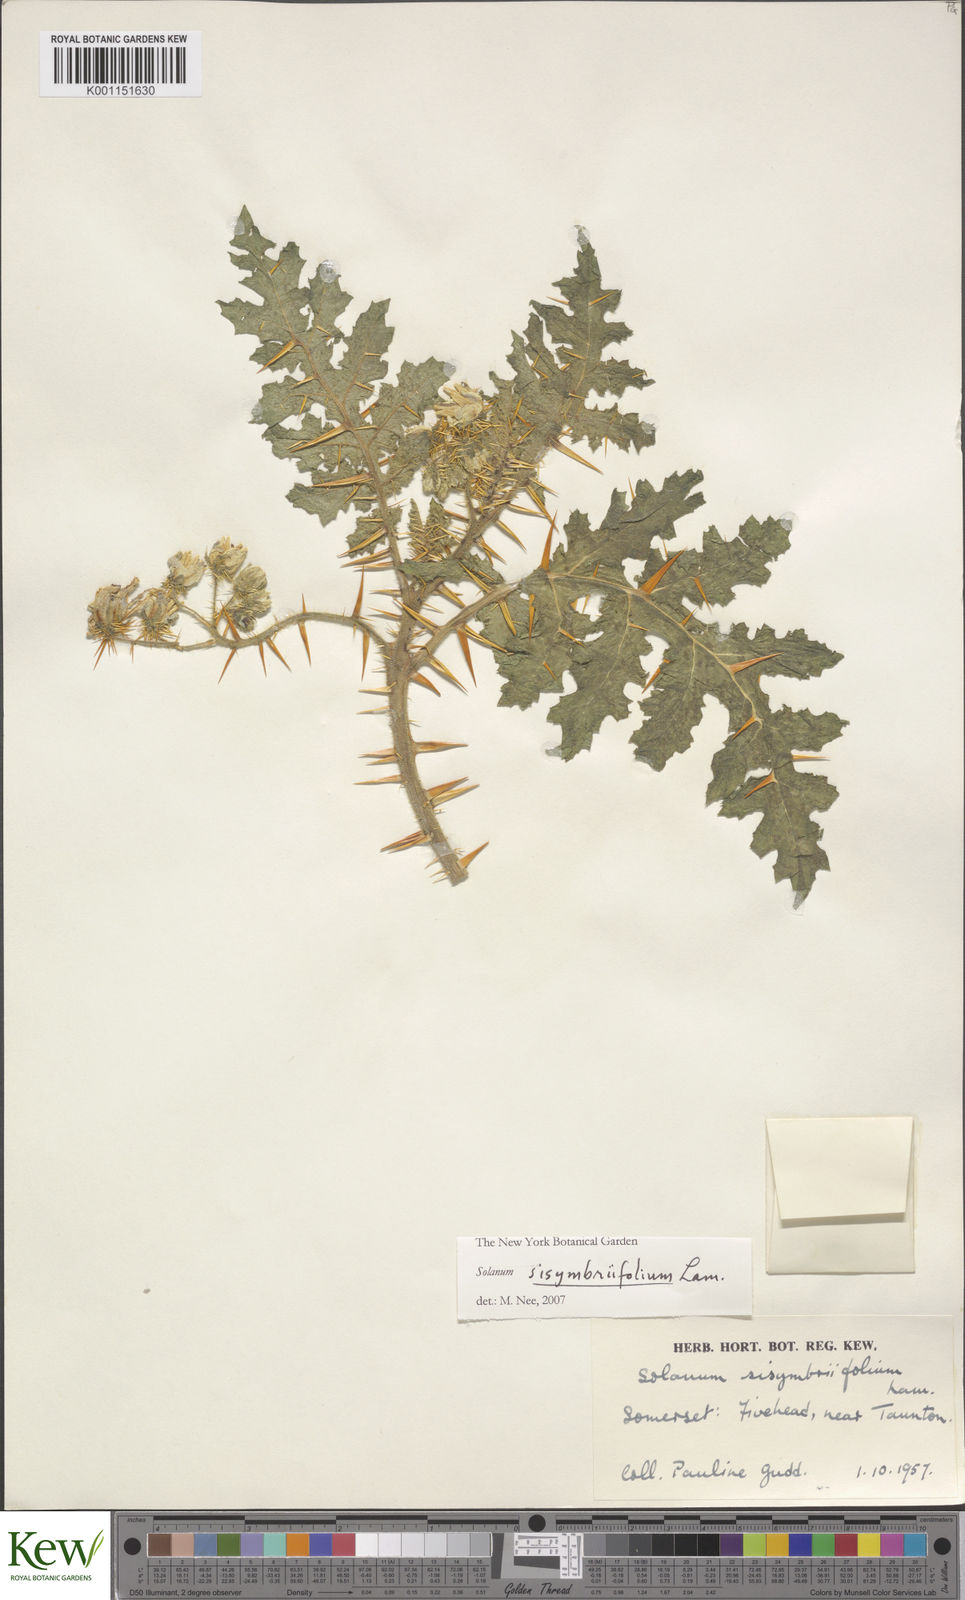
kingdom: Plantae
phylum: Tracheophyta
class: Magnoliopsida
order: Solanales
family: Solanaceae
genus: Solanum
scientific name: Solanum sisymbriifolium
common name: Red buffalo-bur
